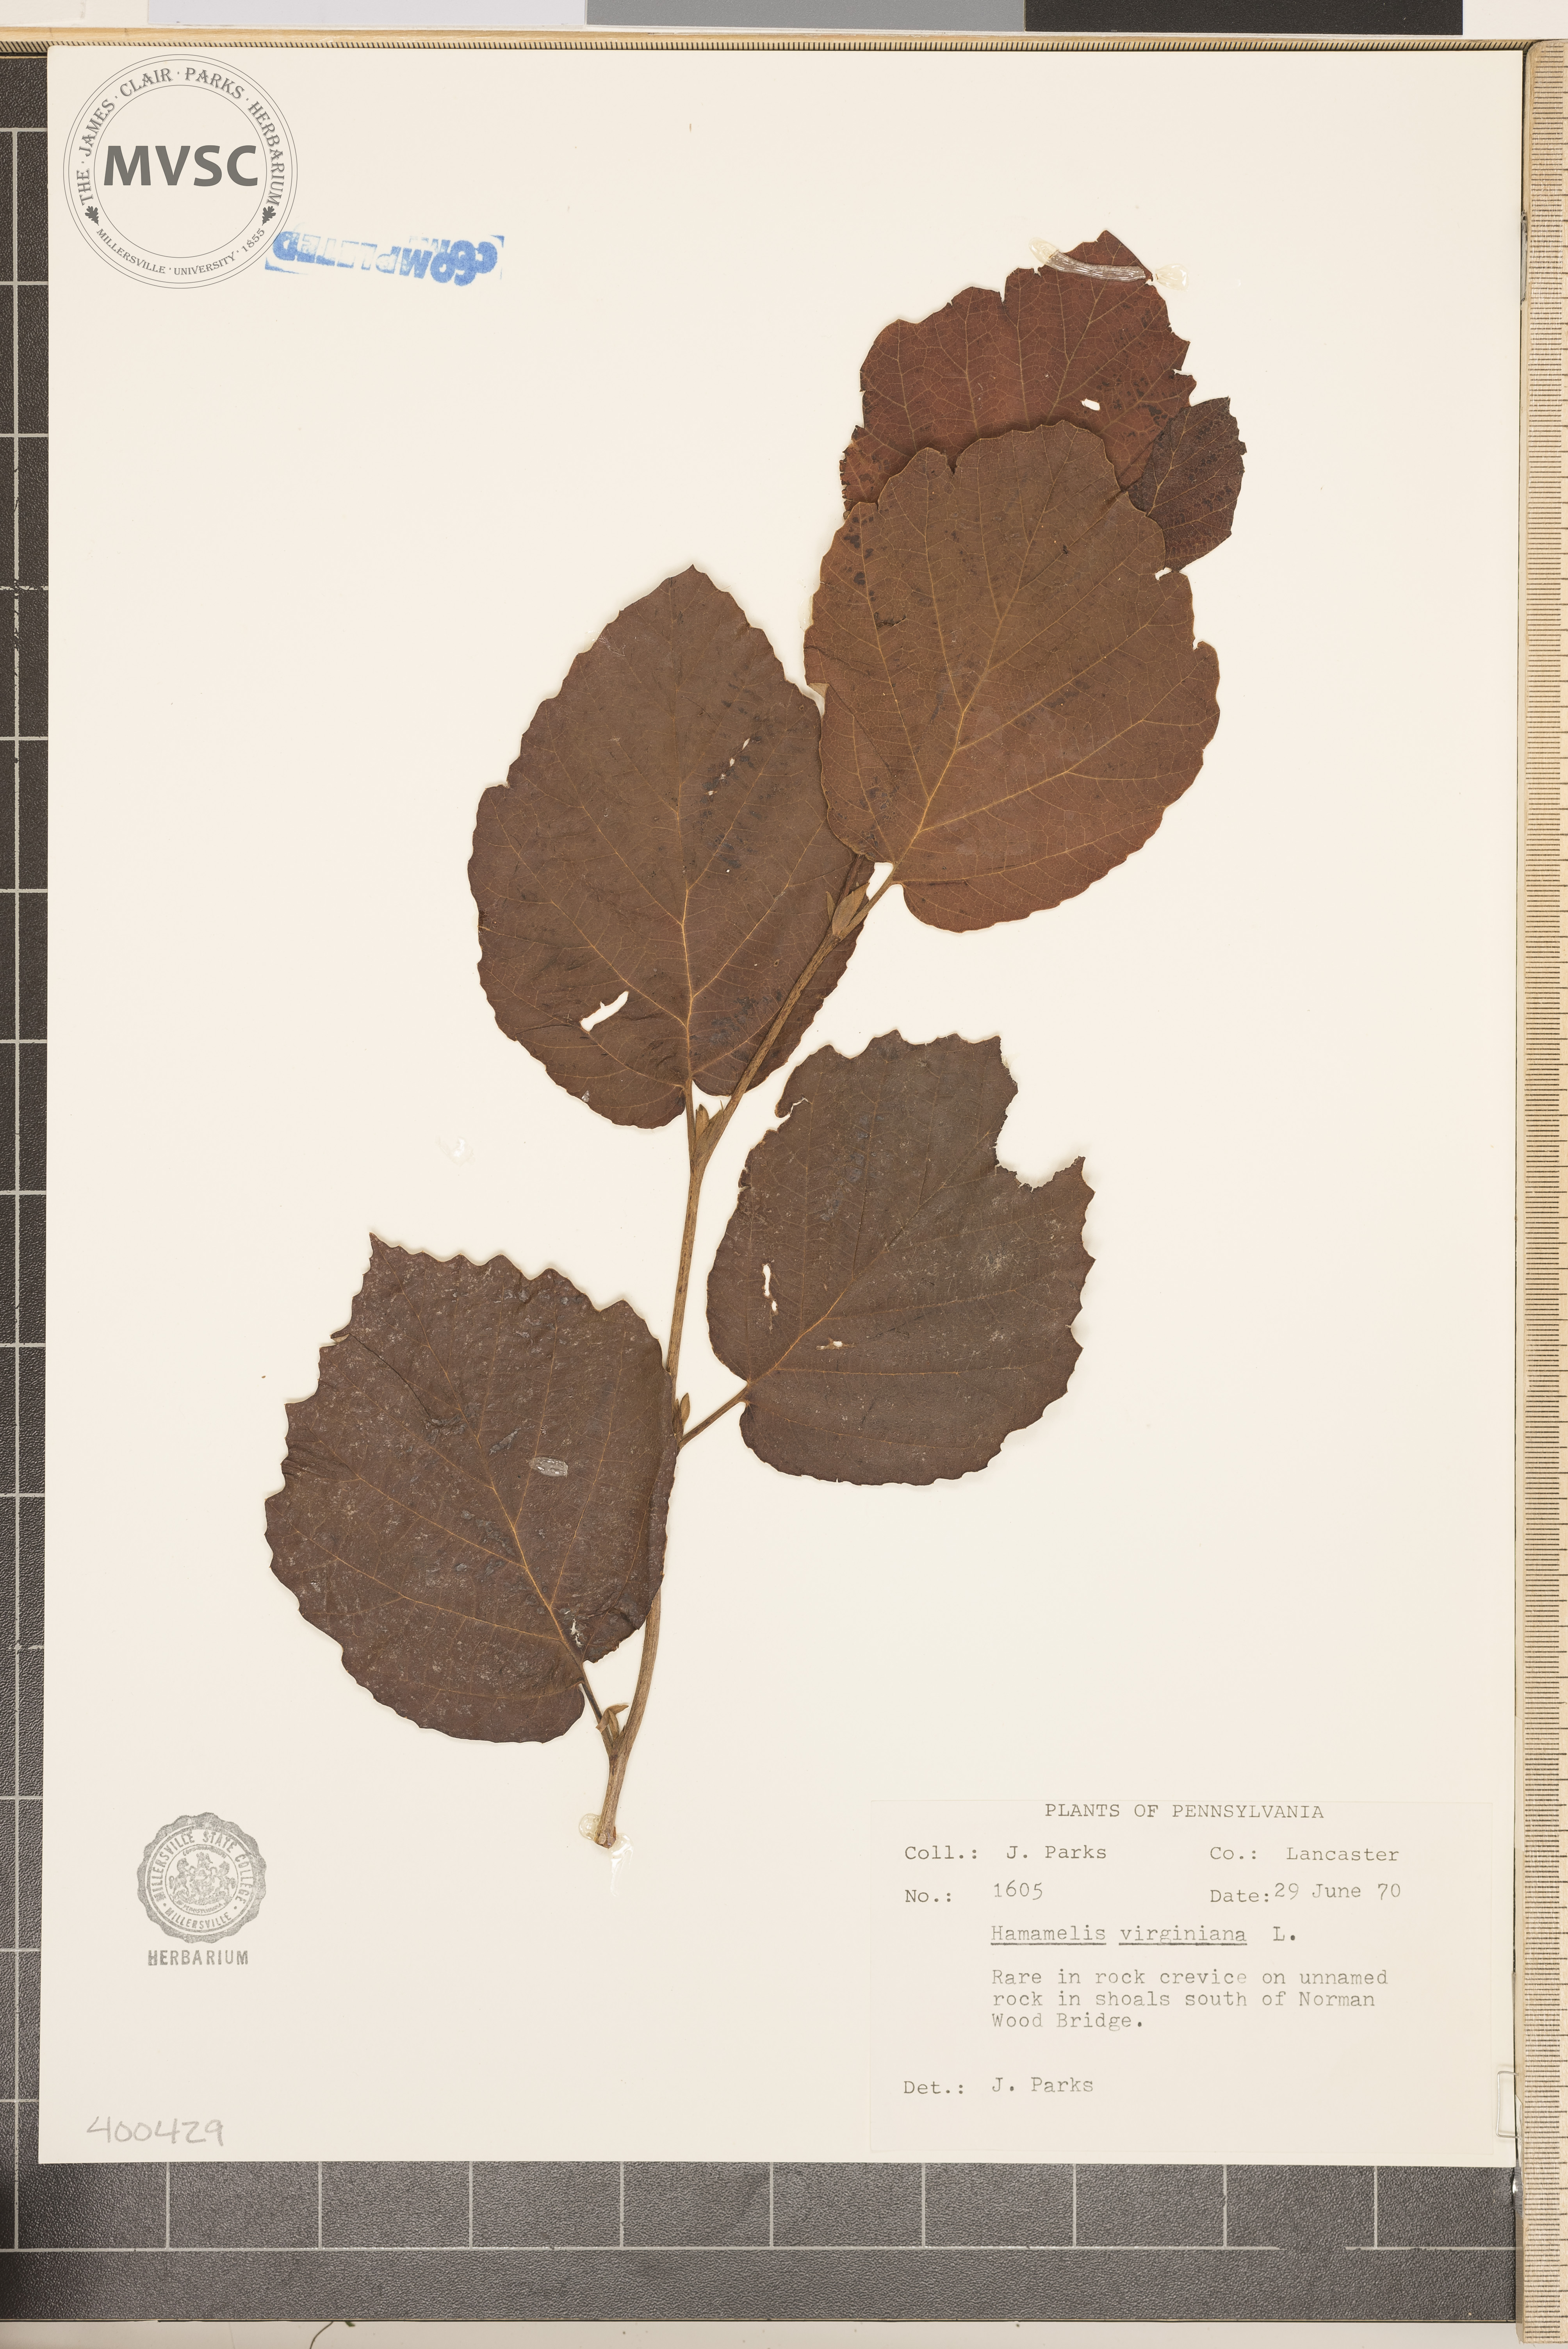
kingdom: Plantae
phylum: Tracheophyta
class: Magnoliopsida
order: Saxifragales
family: Hamamelidaceae
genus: Hamamelis
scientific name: Hamamelis virginiana
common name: witch-hazel
